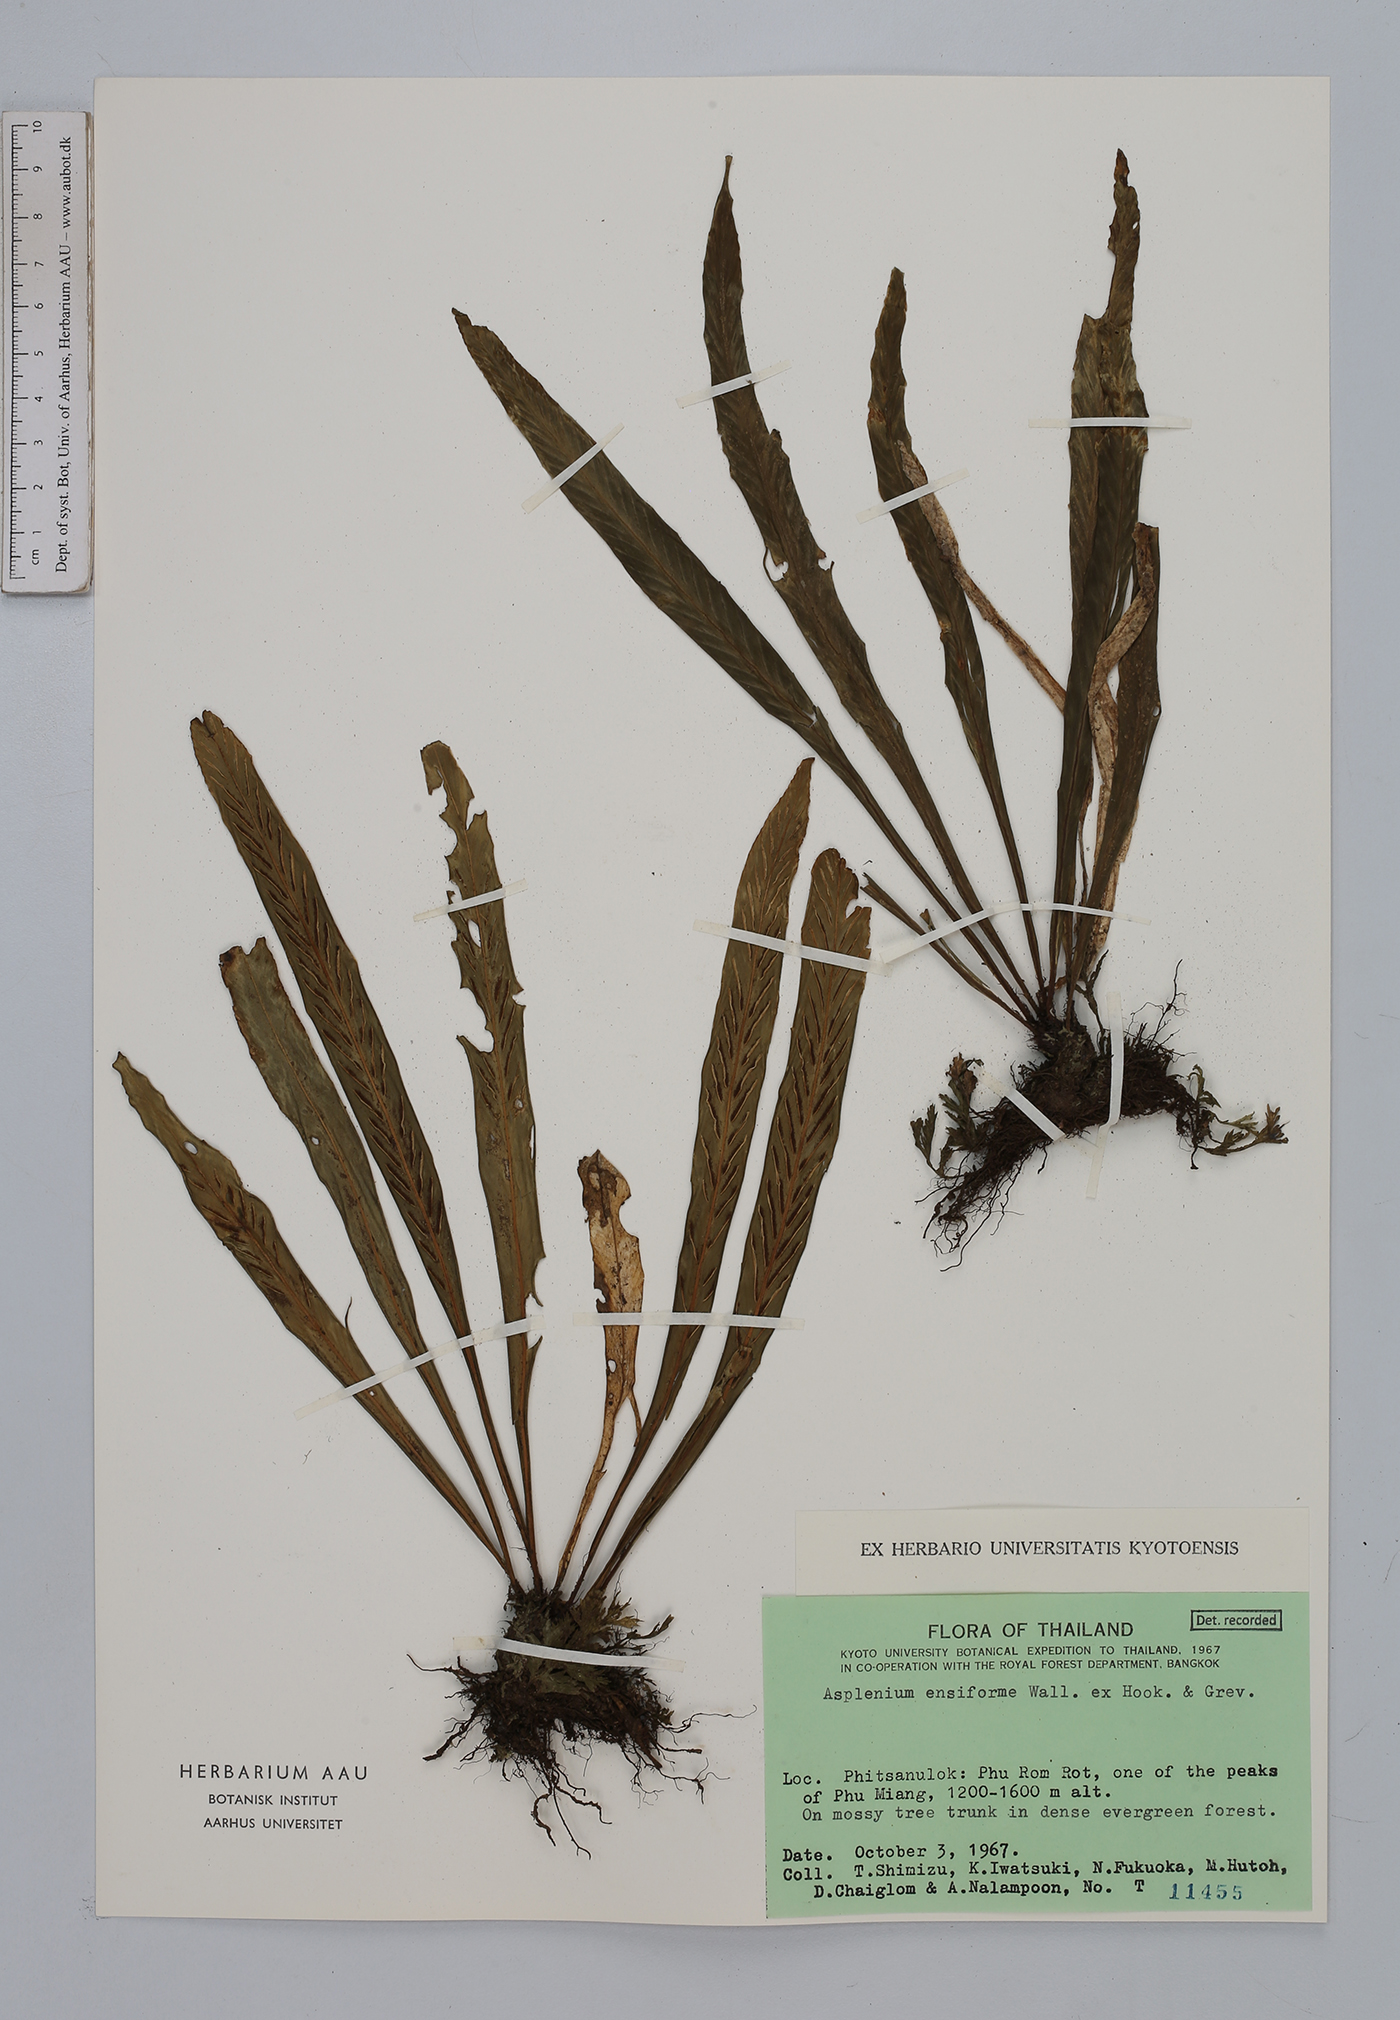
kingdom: Plantae
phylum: Tracheophyta
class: Polypodiopsida
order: Polypodiales
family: Aspleniaceae
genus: Asplenium
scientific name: Asplenium ensiforme
